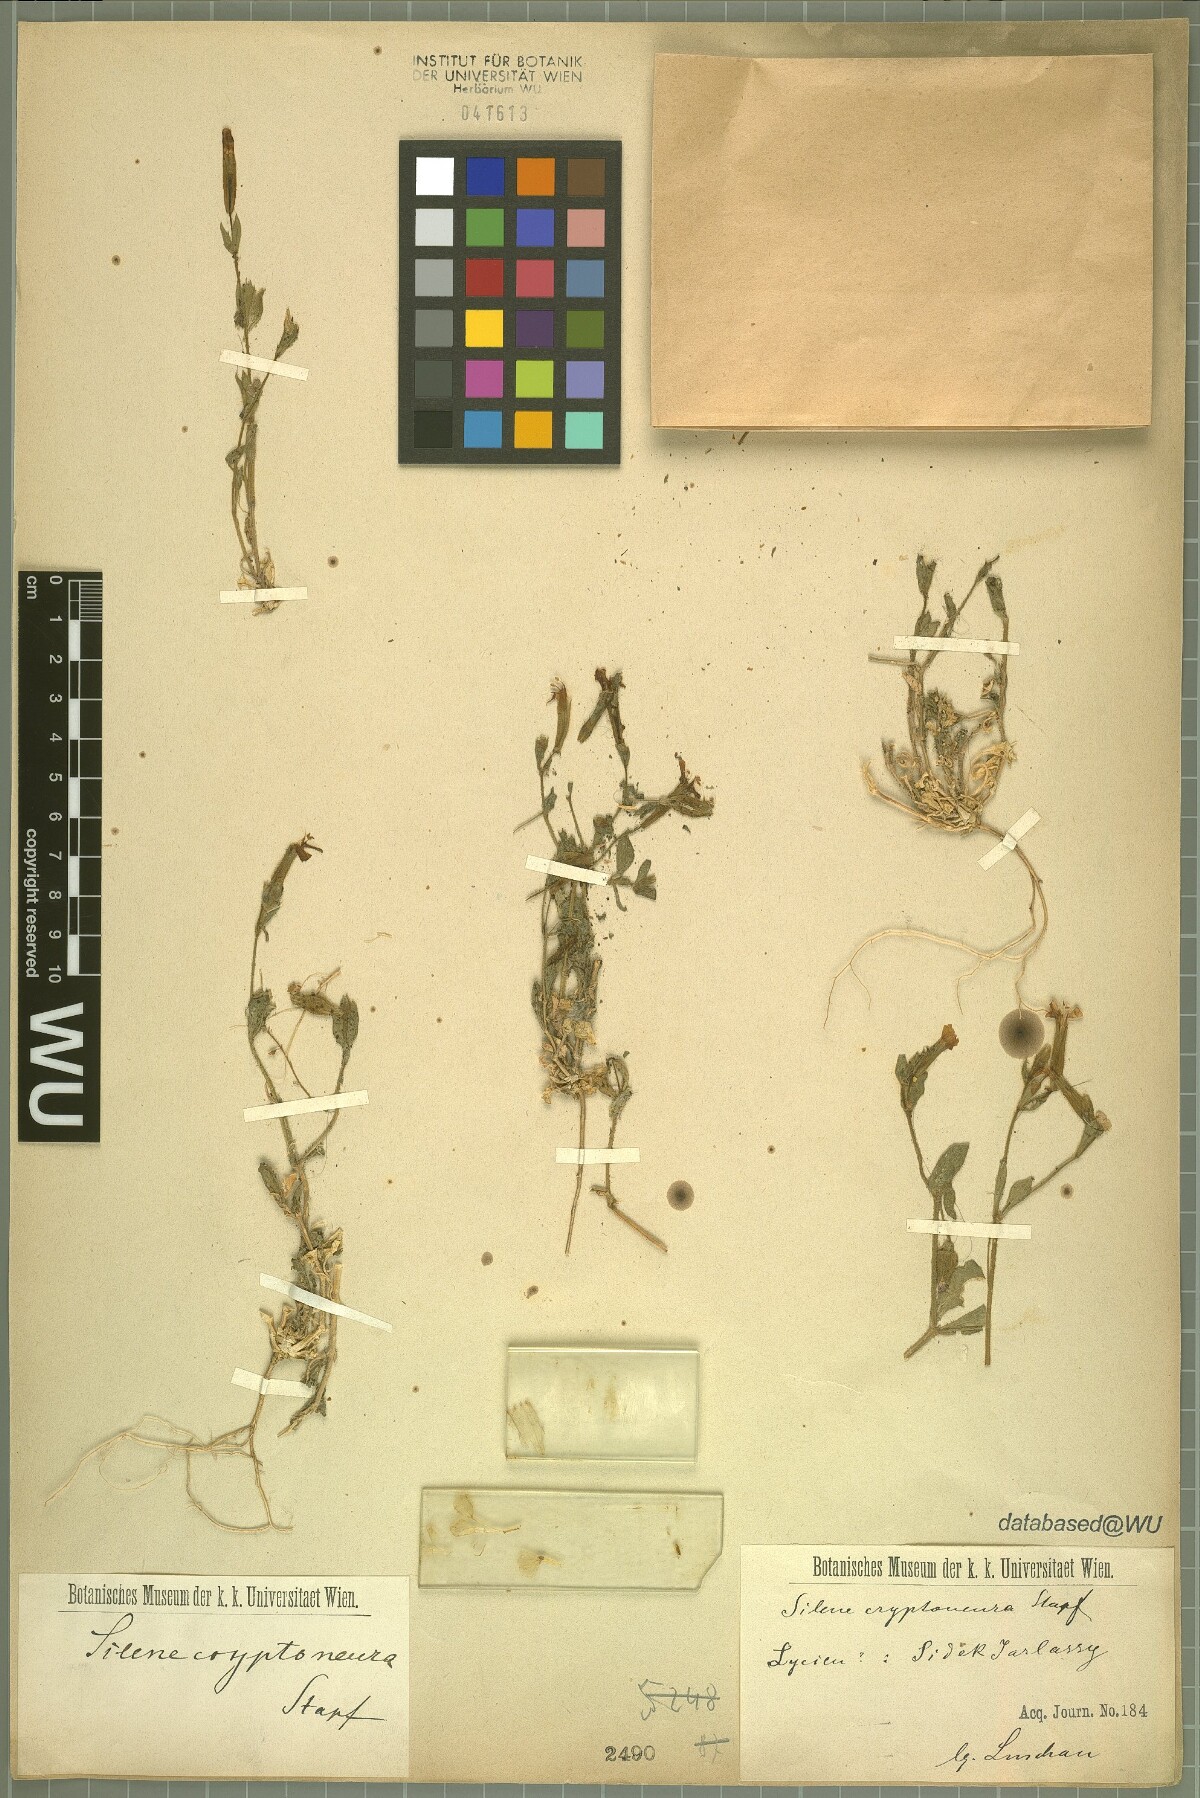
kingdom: Plantae
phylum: Tracheophyta
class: Magnoliopsida
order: Caryophyllales
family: Caryophyllaceae
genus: Silene
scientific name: Silene cryptoneura
